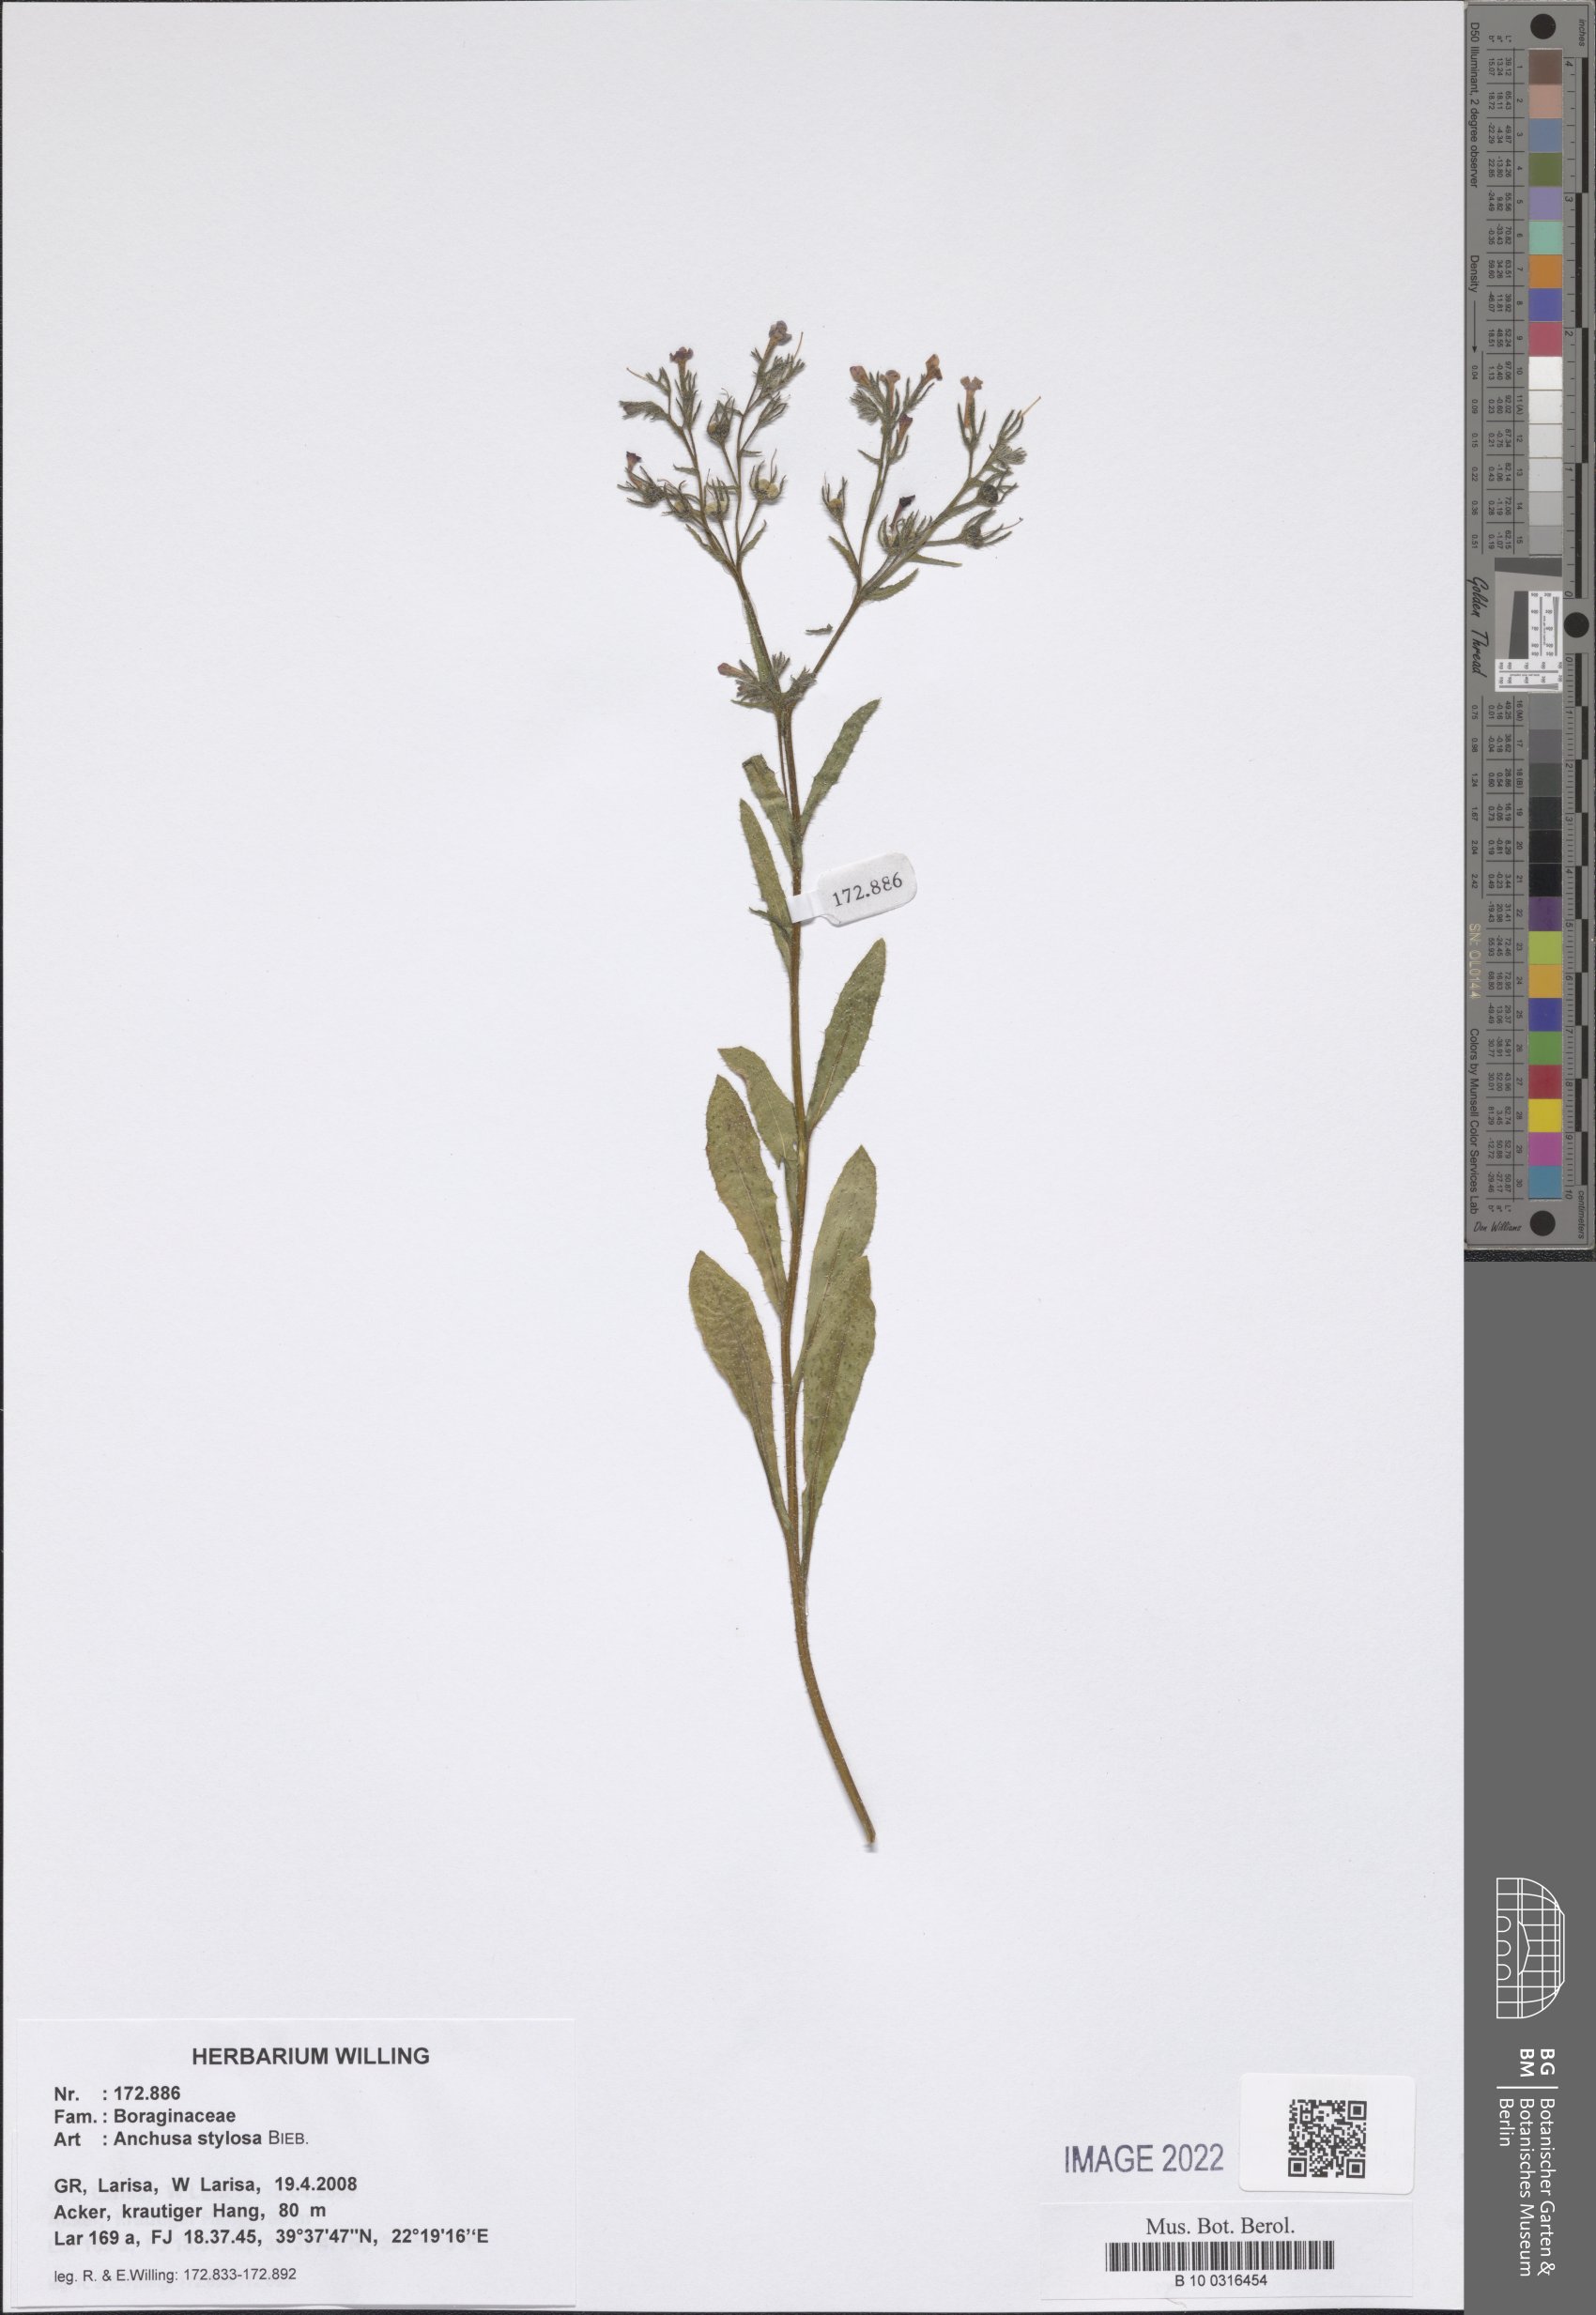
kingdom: Plantae
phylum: Tracheophyta
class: Magnoliopsida
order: Boraginales
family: Boraginaceae
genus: Anchusa
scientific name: Anchusa stylosa
